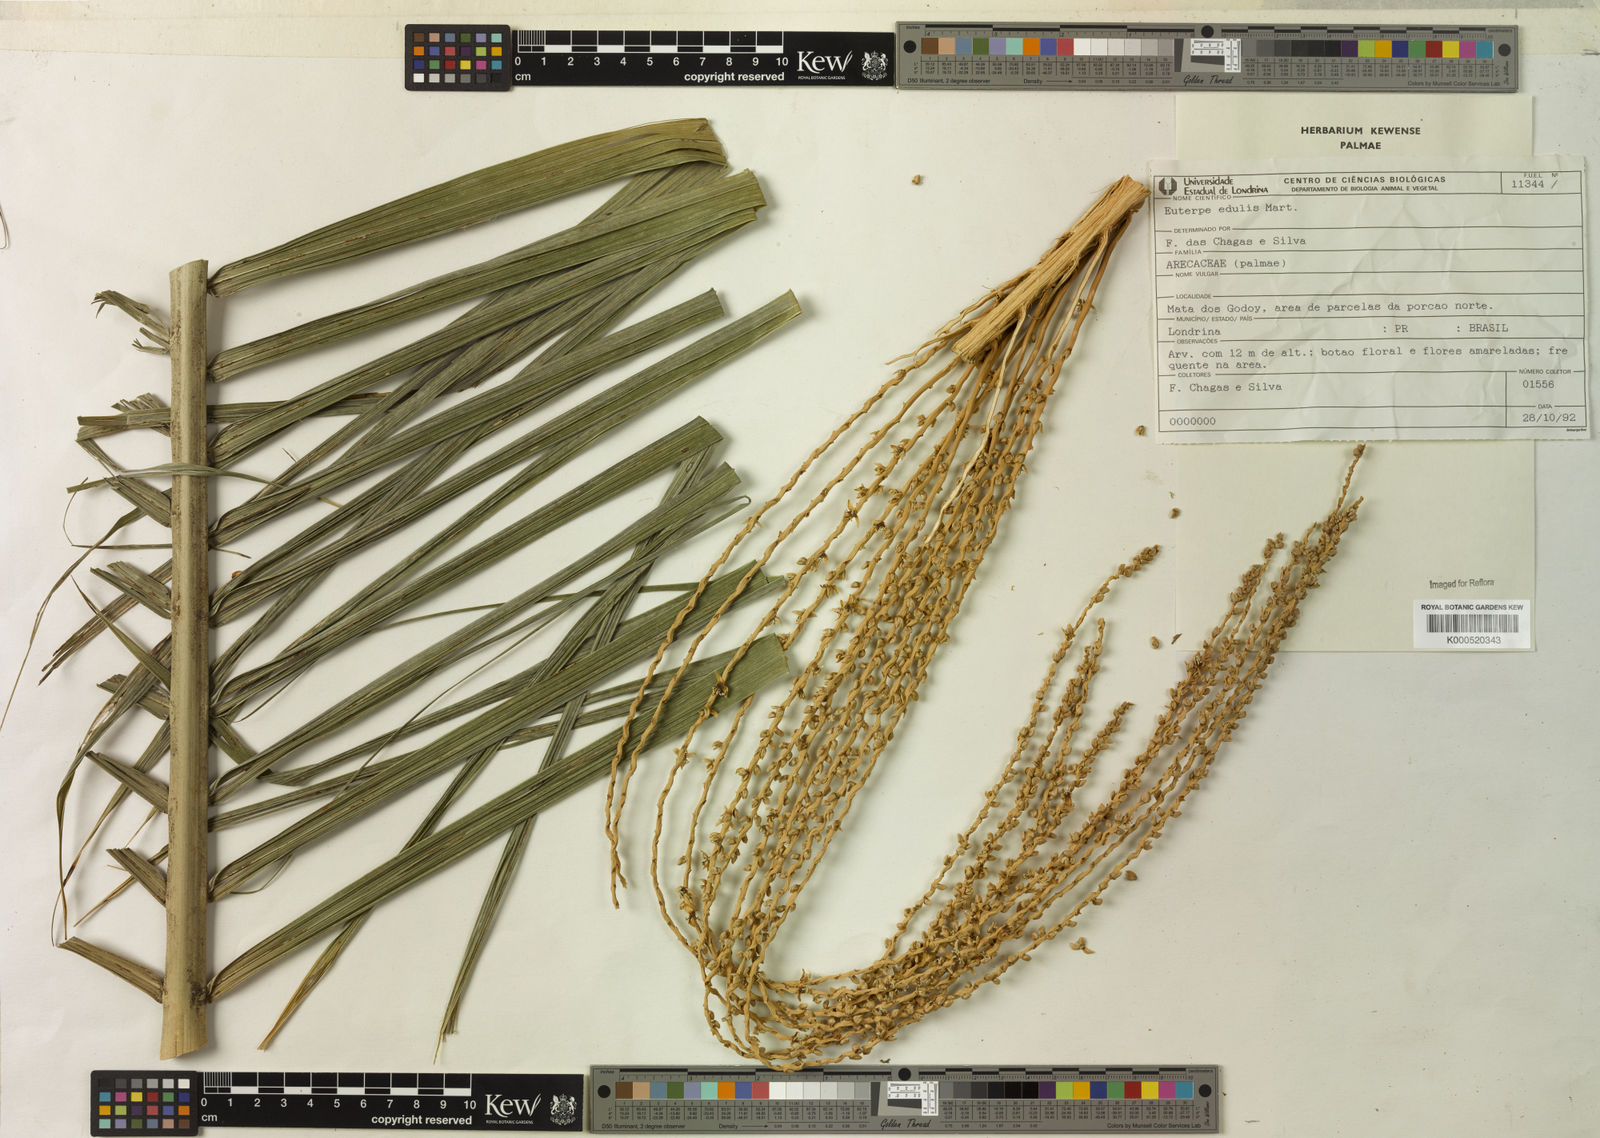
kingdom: Plantae
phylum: Tracheophyta
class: Liliopsida
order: Arecales
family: Arecaceae
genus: Euterpe
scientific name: Euterpe edulis
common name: Assai palm
